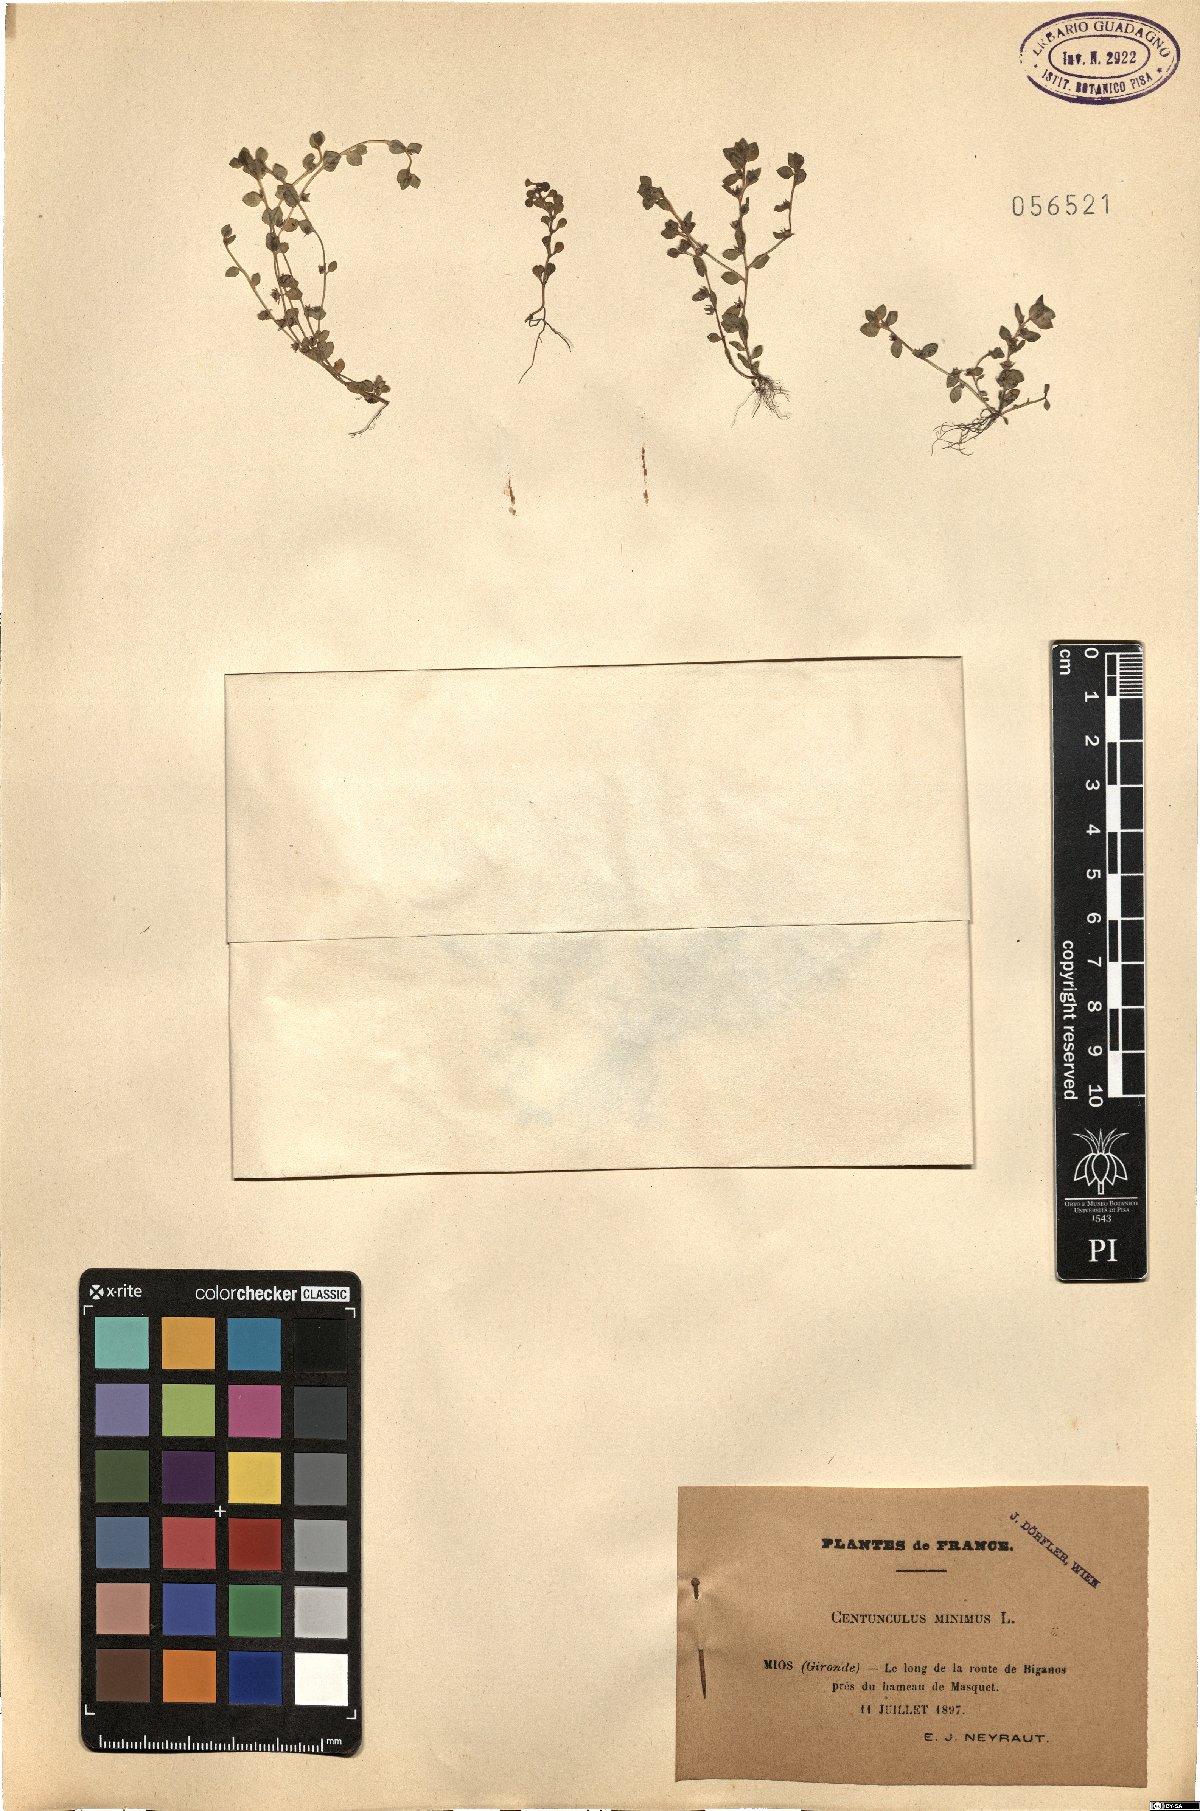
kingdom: Plantae
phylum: Tracheophyta
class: Magnoliopsida
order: Ericales
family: Primulaceae
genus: Lysimachia
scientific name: Lysimachia minima
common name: Chaffweed
